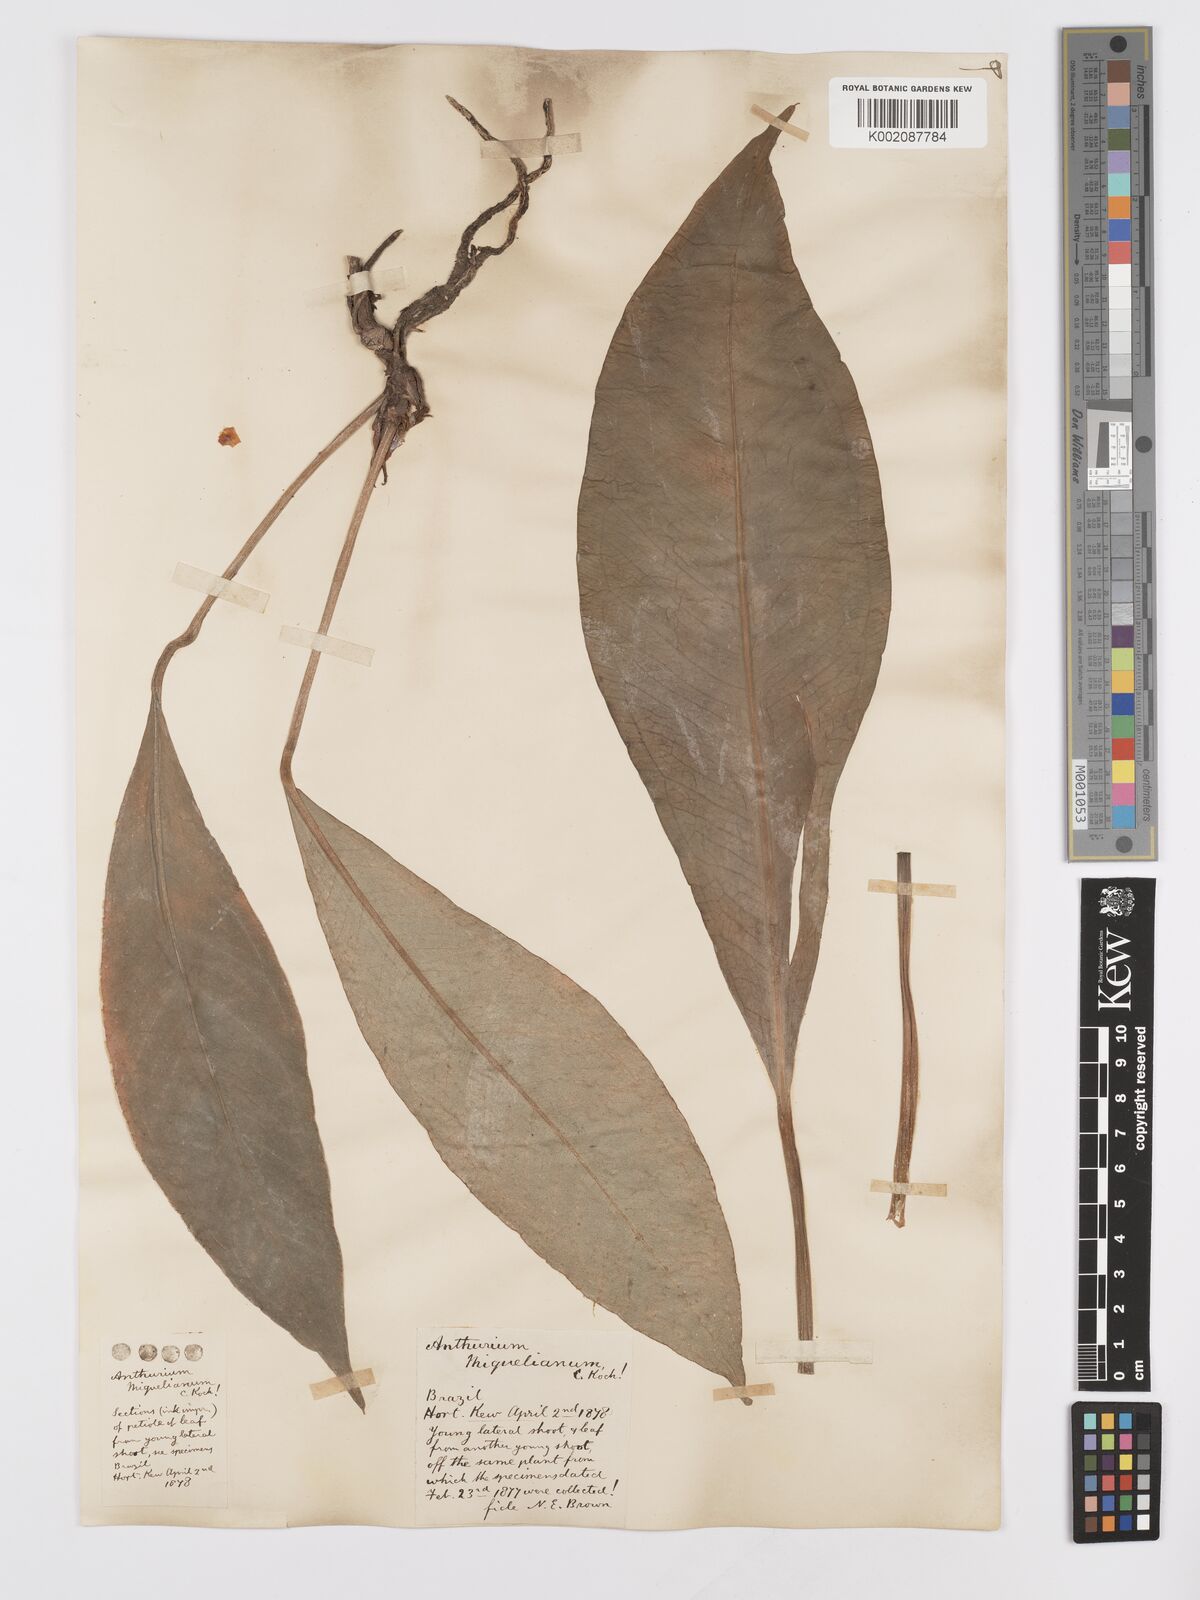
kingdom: Plantae
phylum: Tracheophyta
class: Liliopsida
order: Alismatales
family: Araceae
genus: Anthurium
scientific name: Anthurium parasiticum
